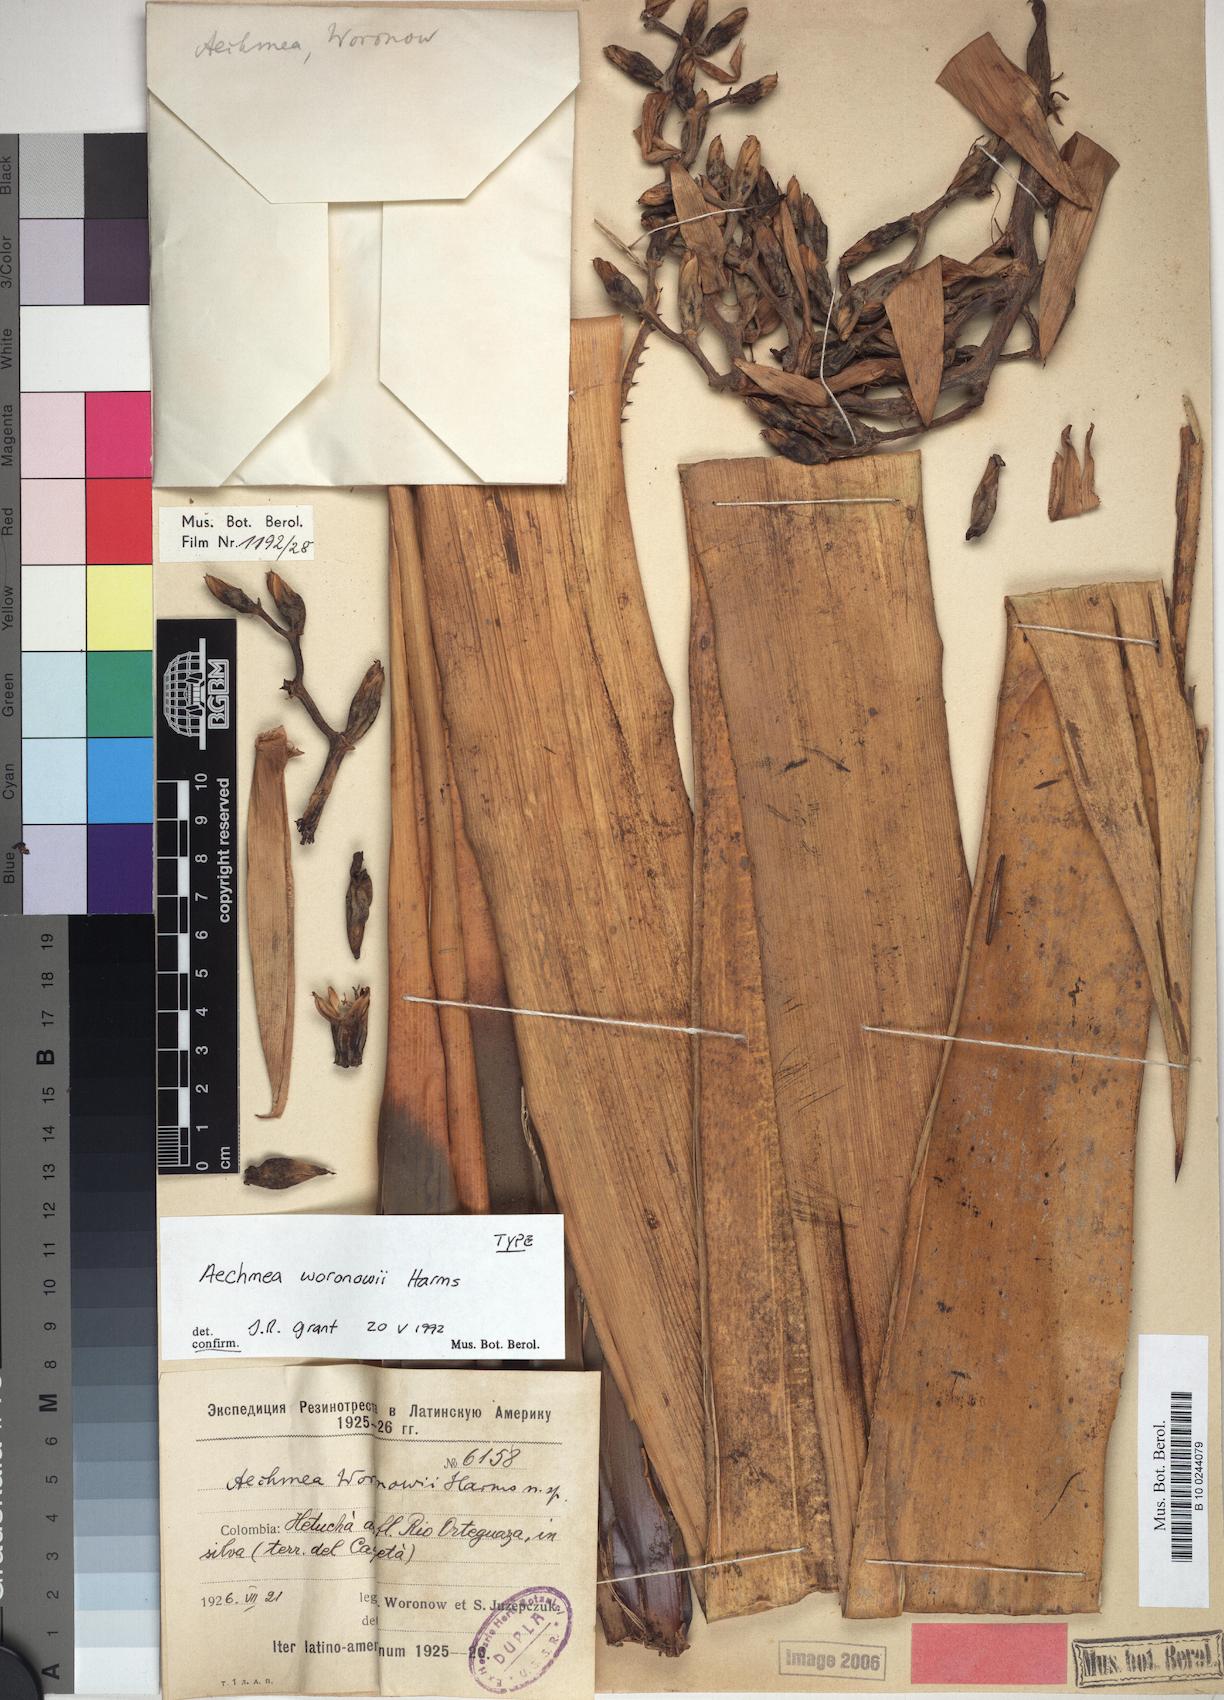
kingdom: Plantae
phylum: Tracheophyta
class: Liliopsida
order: Poales
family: Bromeliaceae
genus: Aechmea
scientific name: Aechmea woronowii
